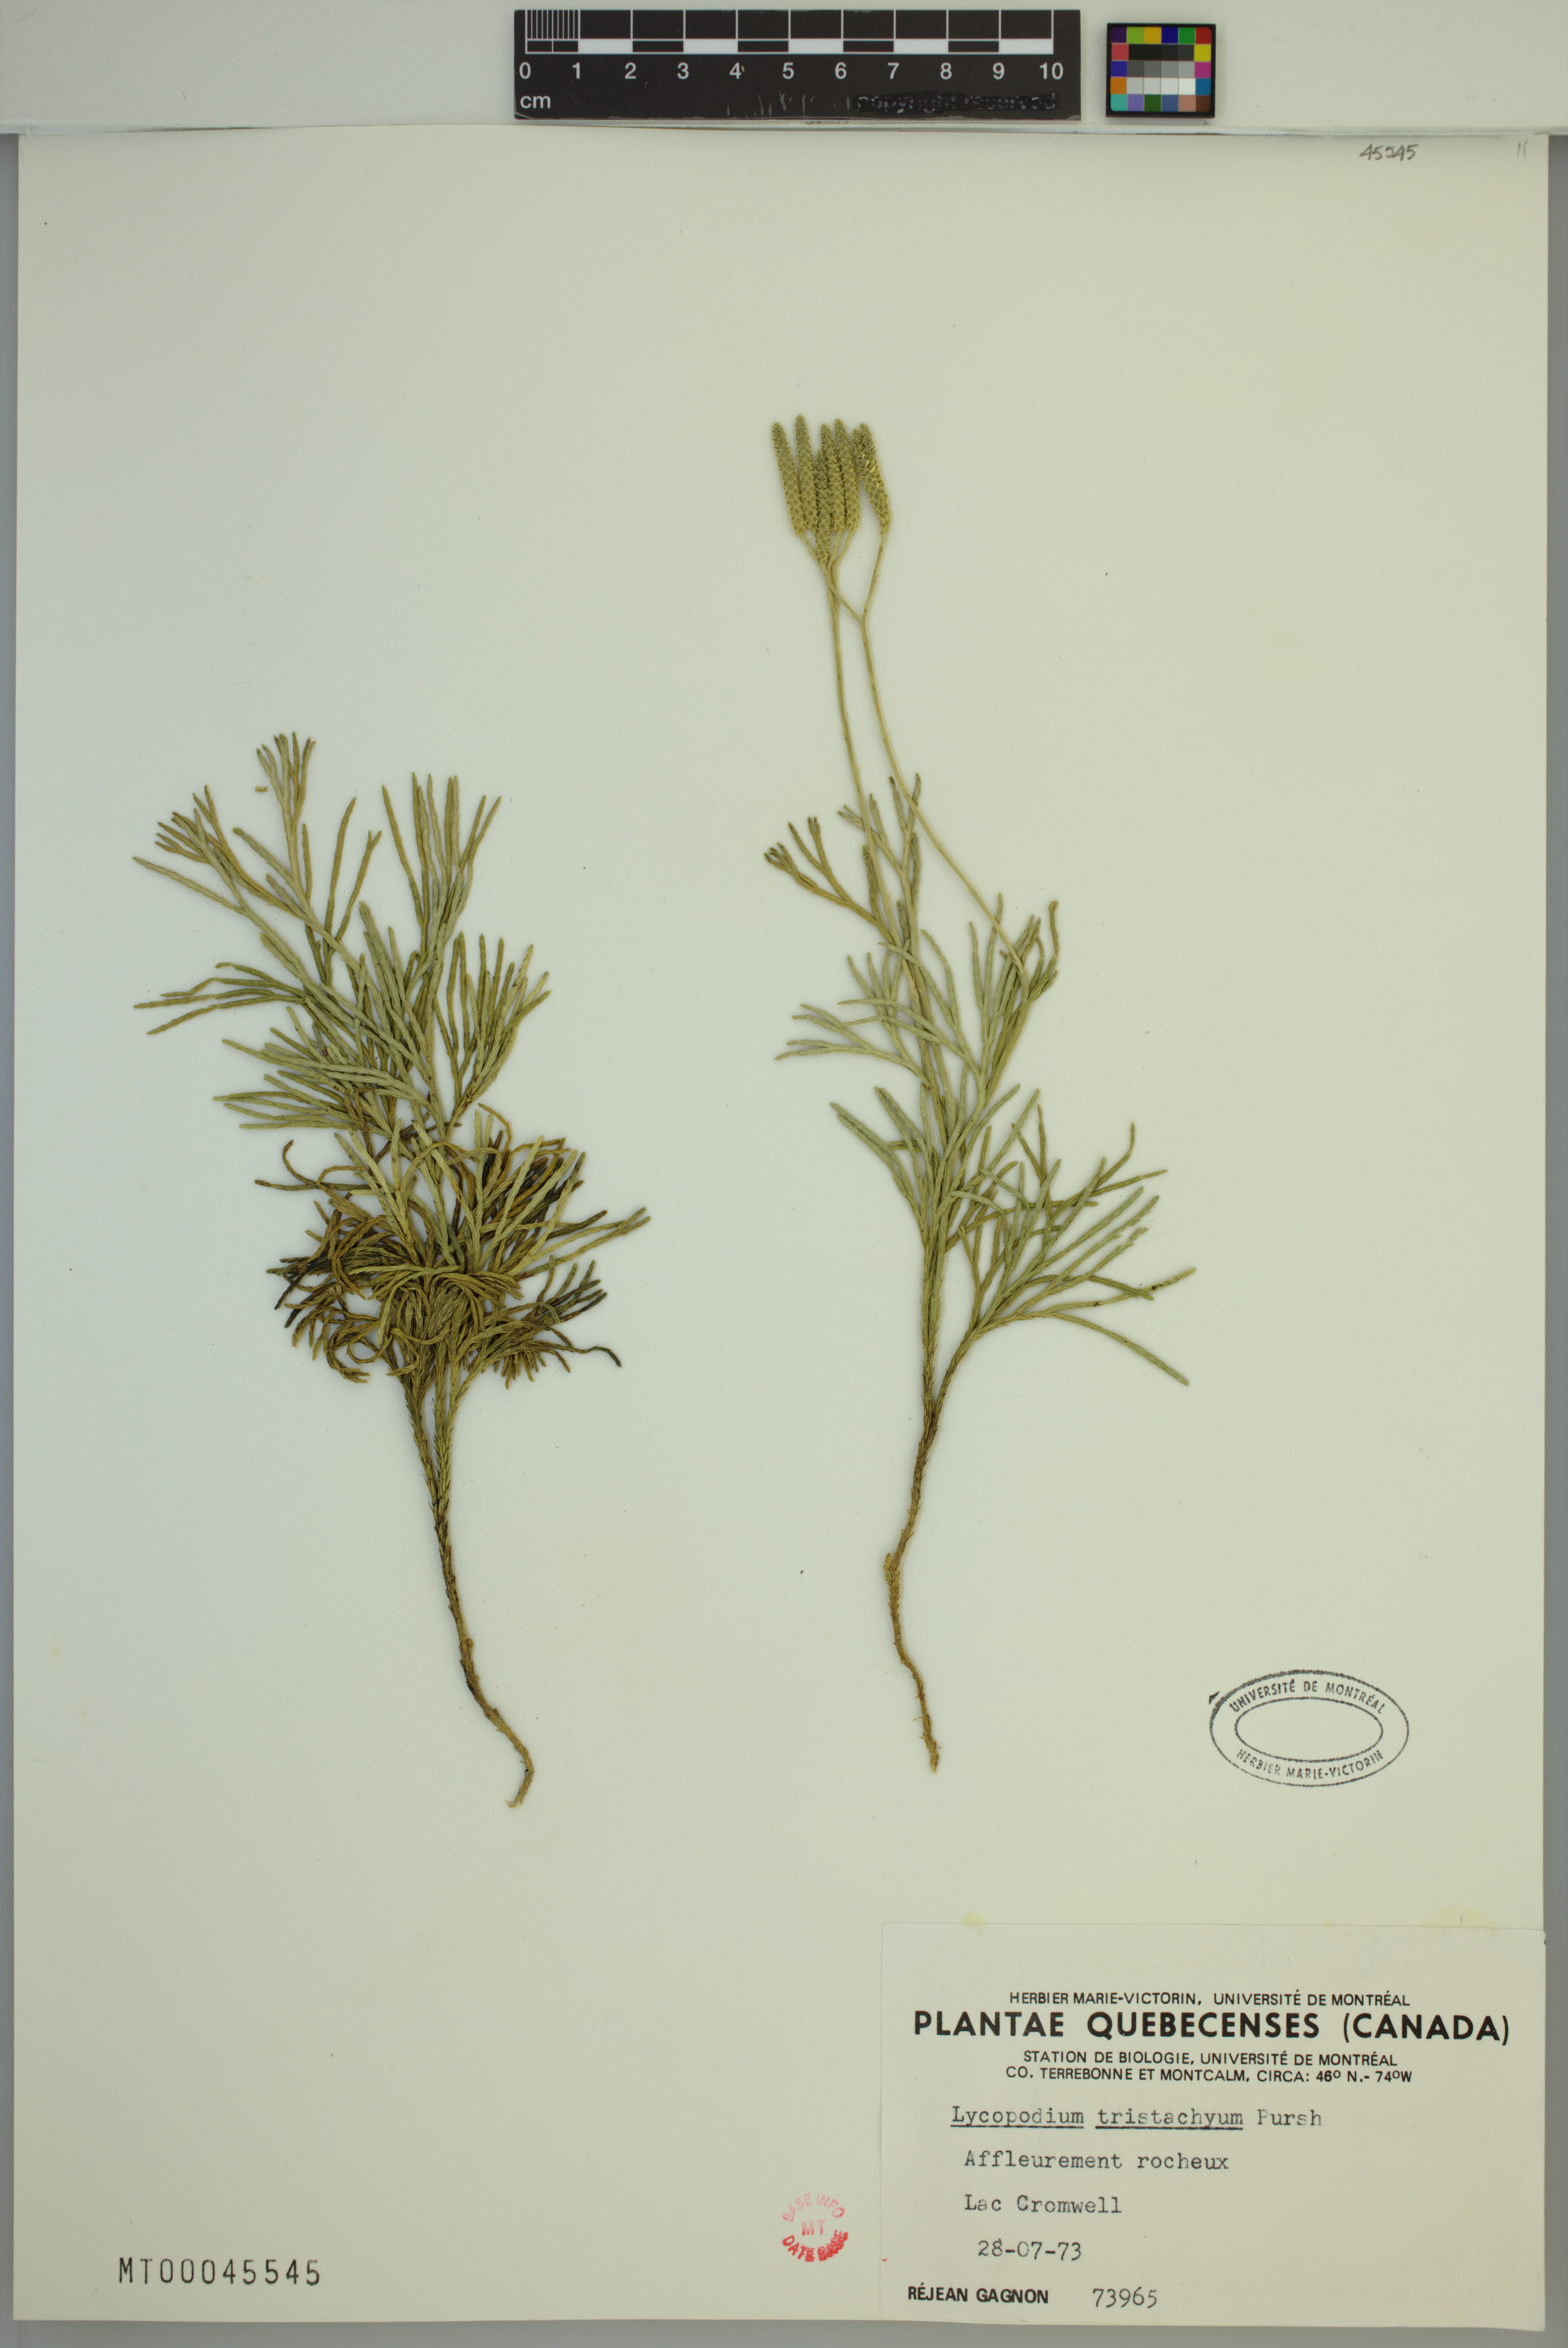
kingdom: Plantae
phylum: Tracheophyta
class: Lycopodiopsida
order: Lycopodiales
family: Lycopodiaceae
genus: Diphasiastrum
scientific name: Diphasiastrum tristachyum
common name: Blue ground-cedar
